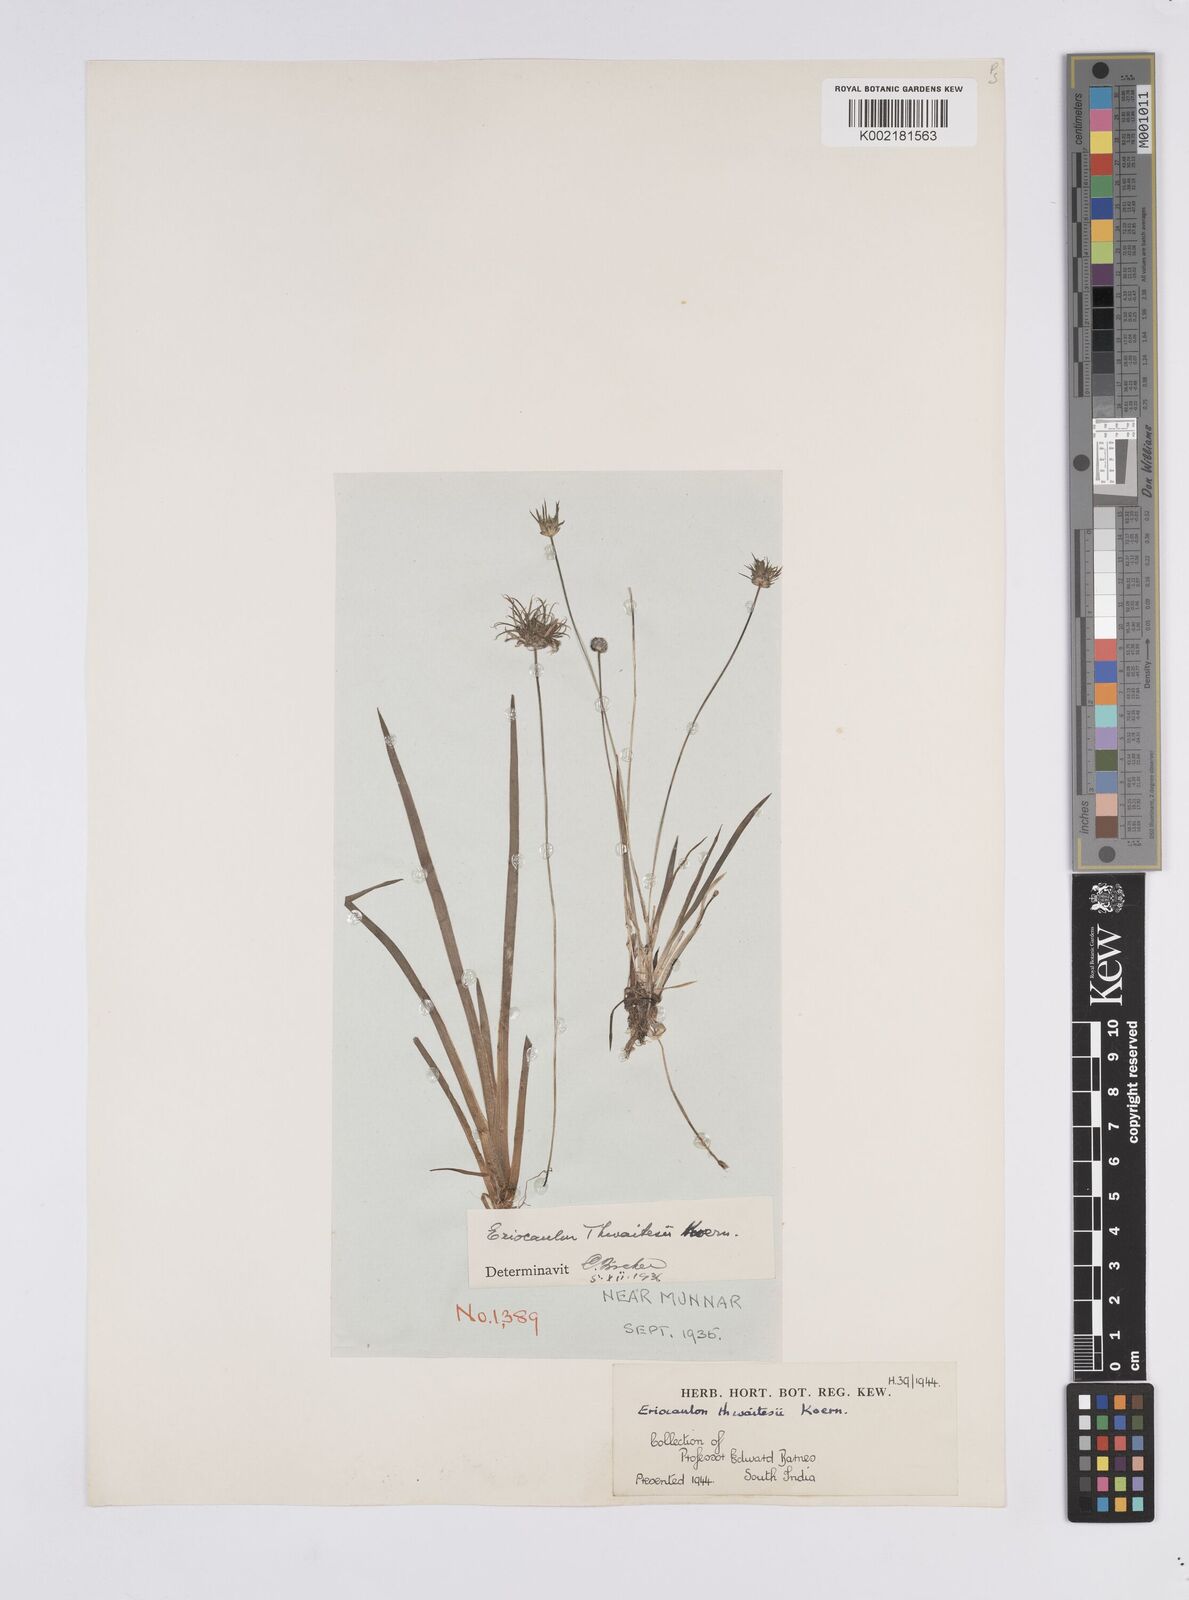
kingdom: Plantae
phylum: Tracheophyta
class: Liliopsida
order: Poales
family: Eriocaulaceae
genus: Eriocaulon
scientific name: Eriocaulon thwaitesii
